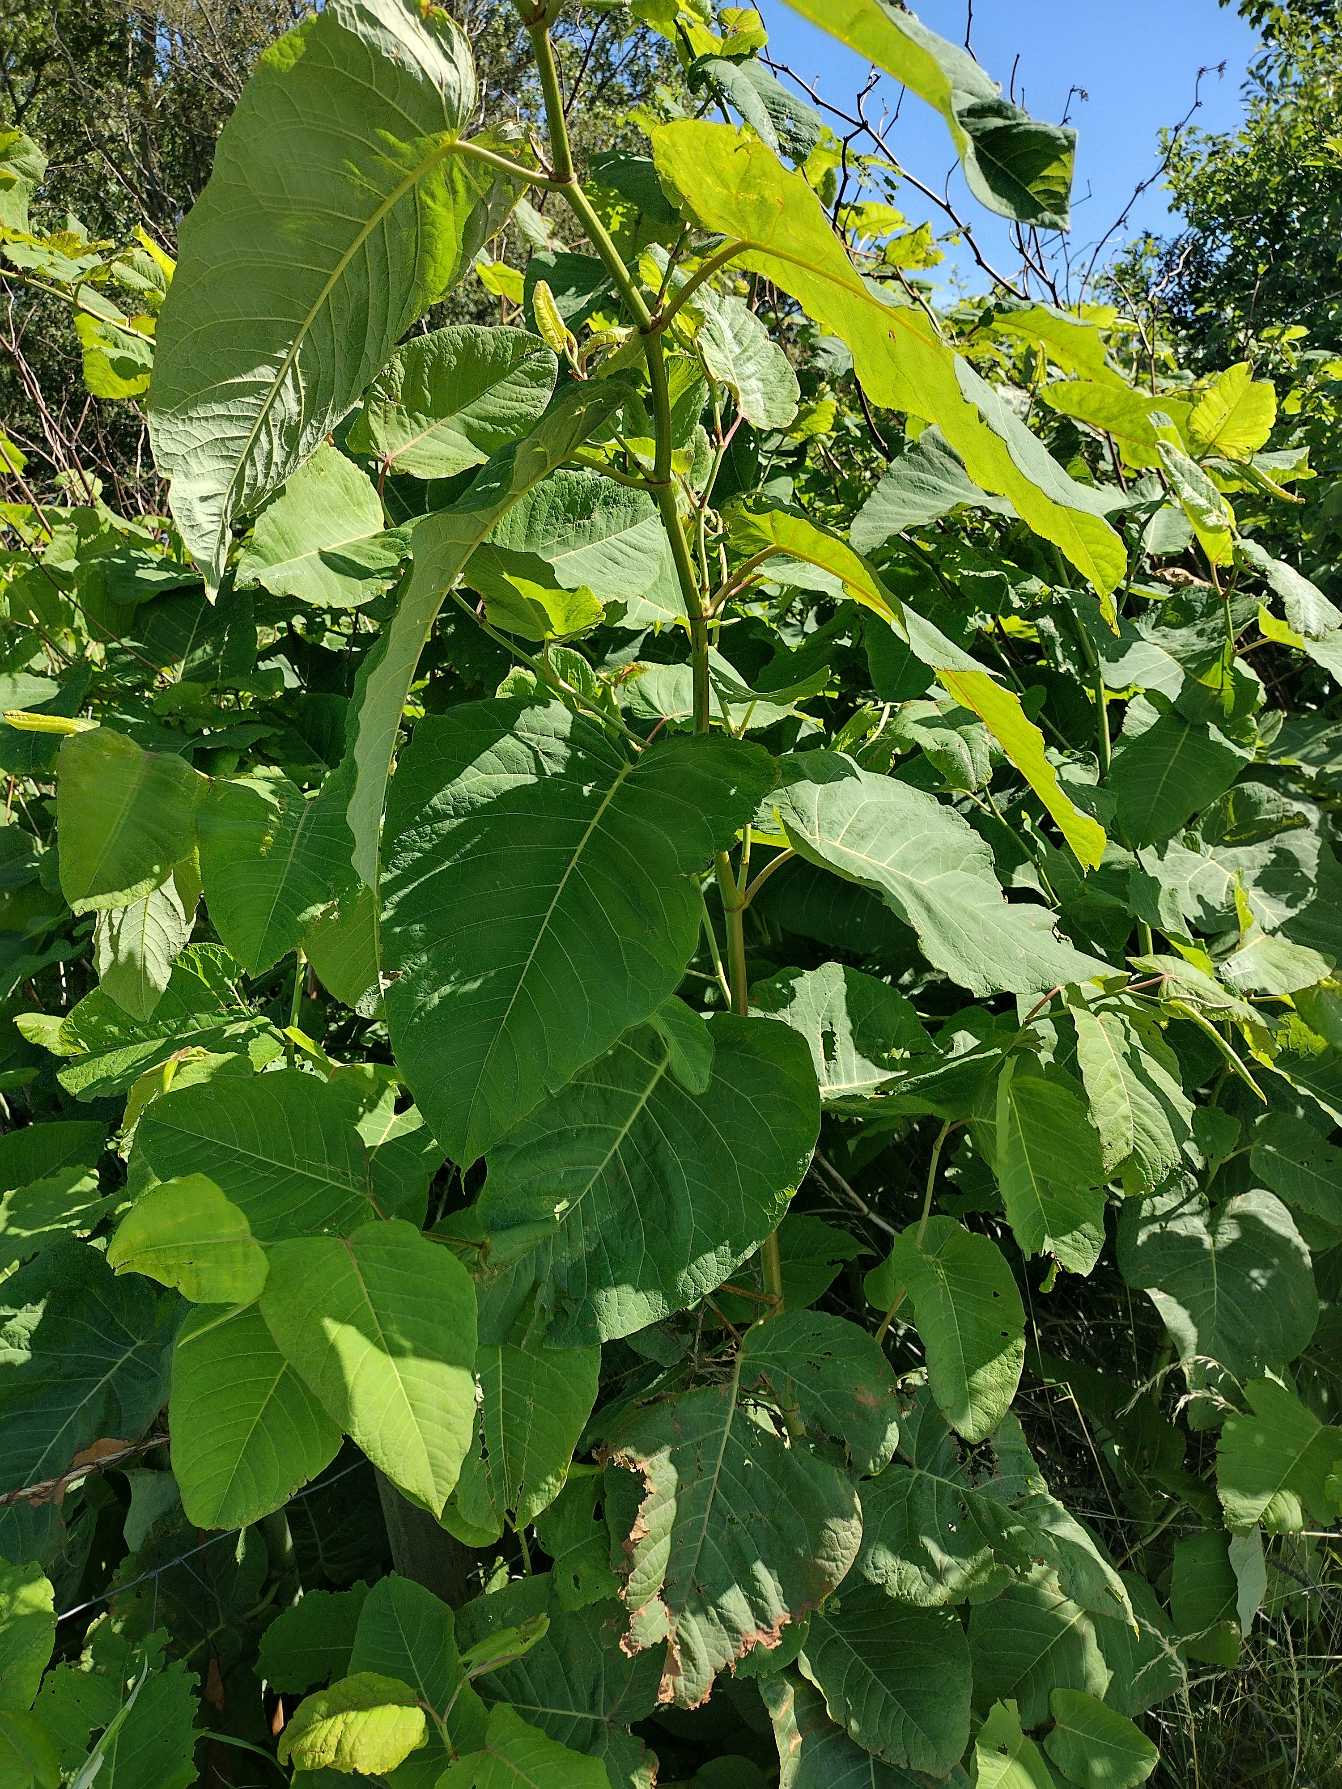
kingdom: Plantae
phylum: Tracheophyta
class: Magnoliopsida
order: Caryophyllales
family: Polygonaceae
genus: Reynoutria
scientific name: Reynoutria sachalinensis
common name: Kæmpe-pileurt
